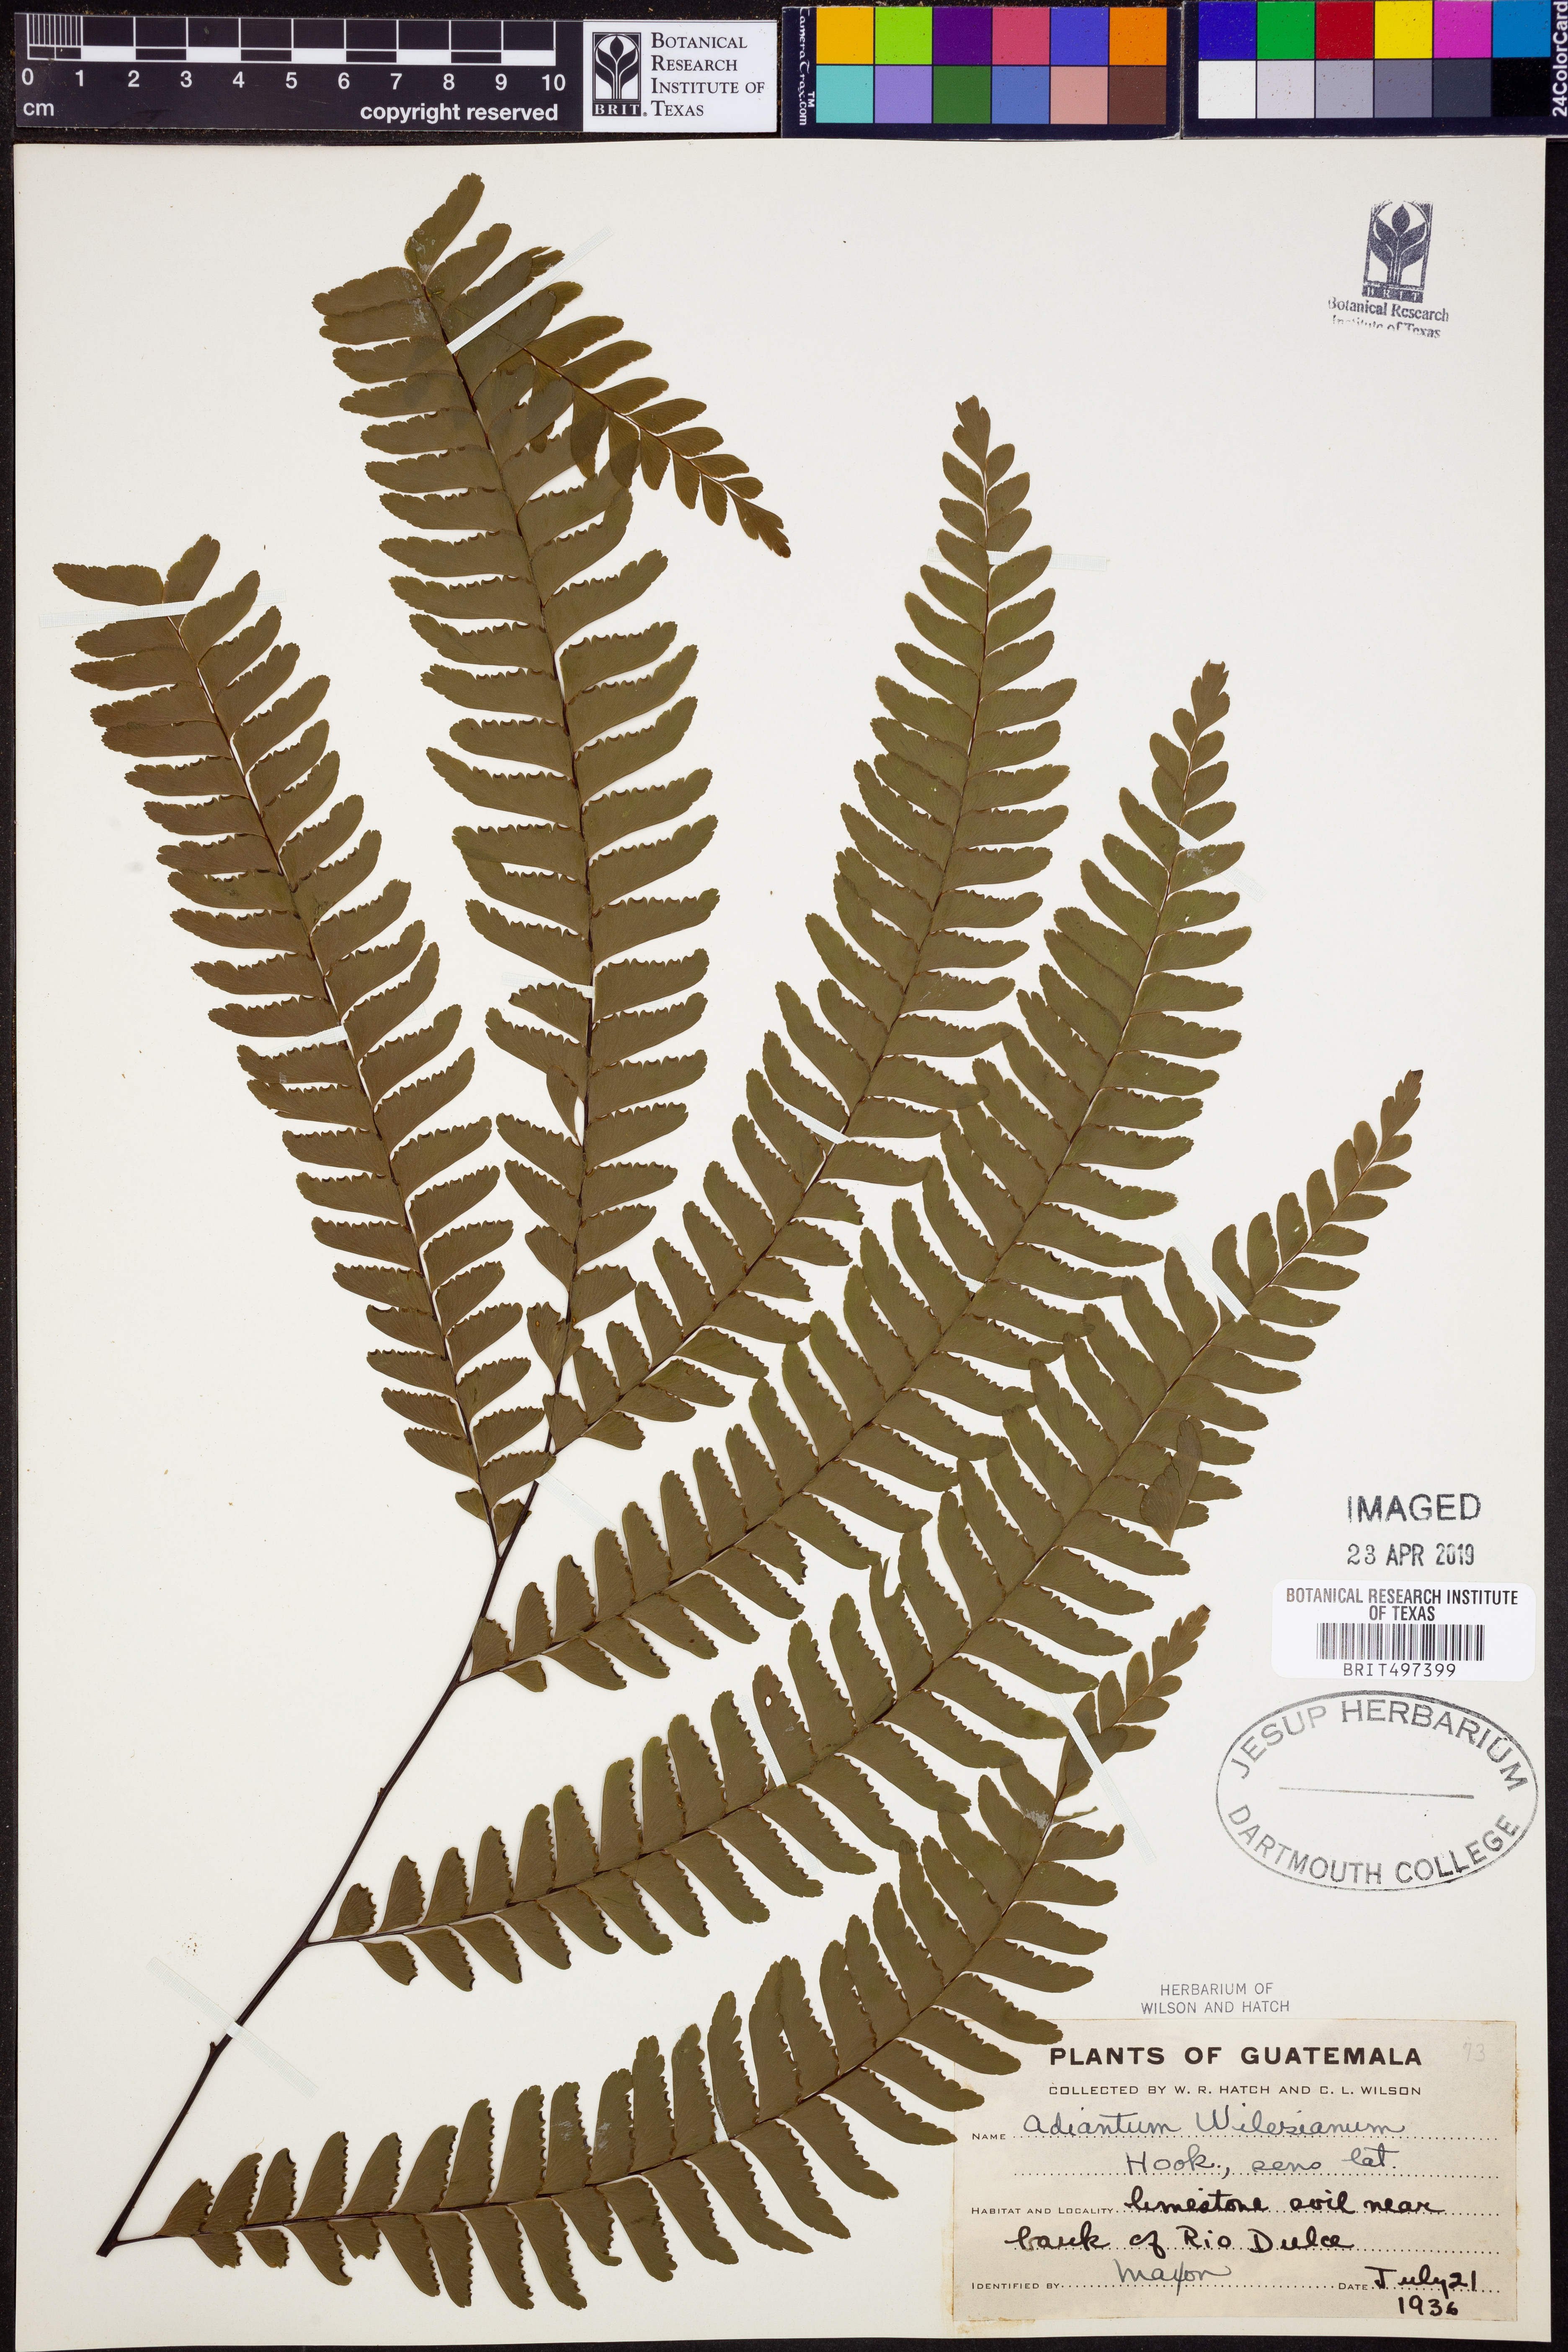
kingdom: Plantae
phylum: Tracheophyta
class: Polypodiopsida
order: Polypodiales
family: Pteridaceae
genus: Adiantum
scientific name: Adiantum wilesianum
